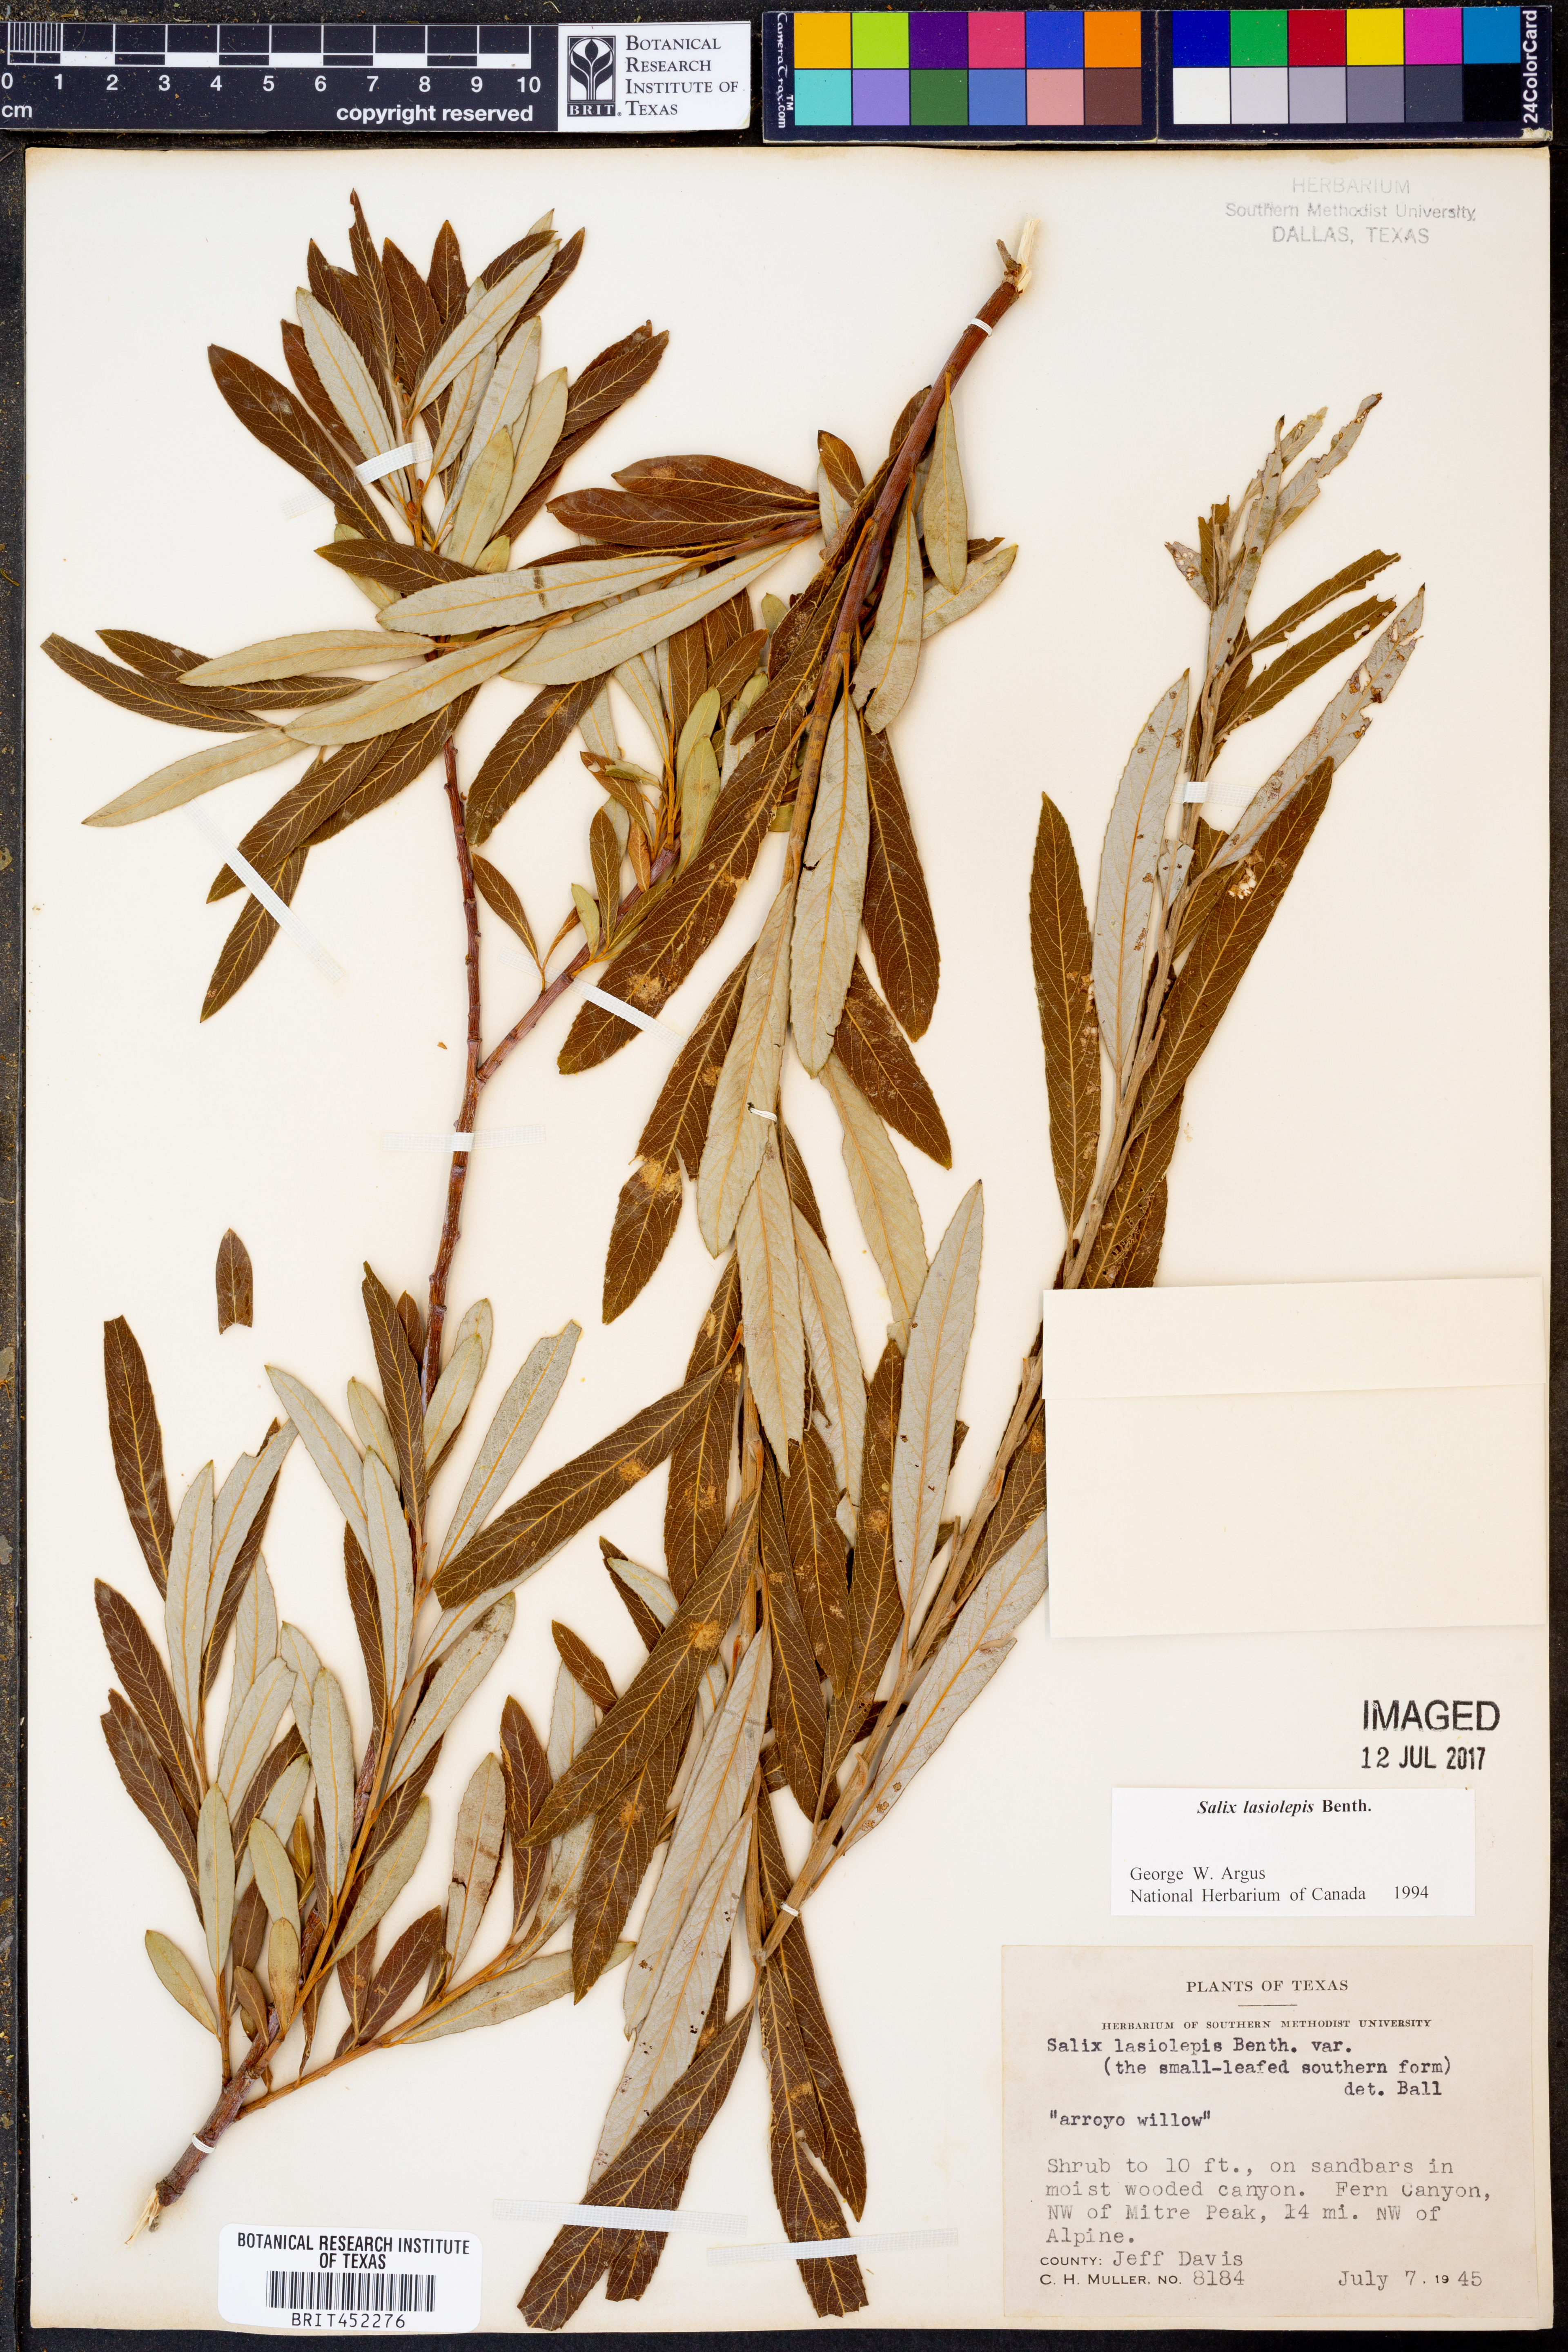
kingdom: Plantae
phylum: Tracheophyta
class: Magnoliopsida
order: Malpighiales
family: Salicaceae
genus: Salix
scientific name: Salix lasiolepis
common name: Arroyo willow
